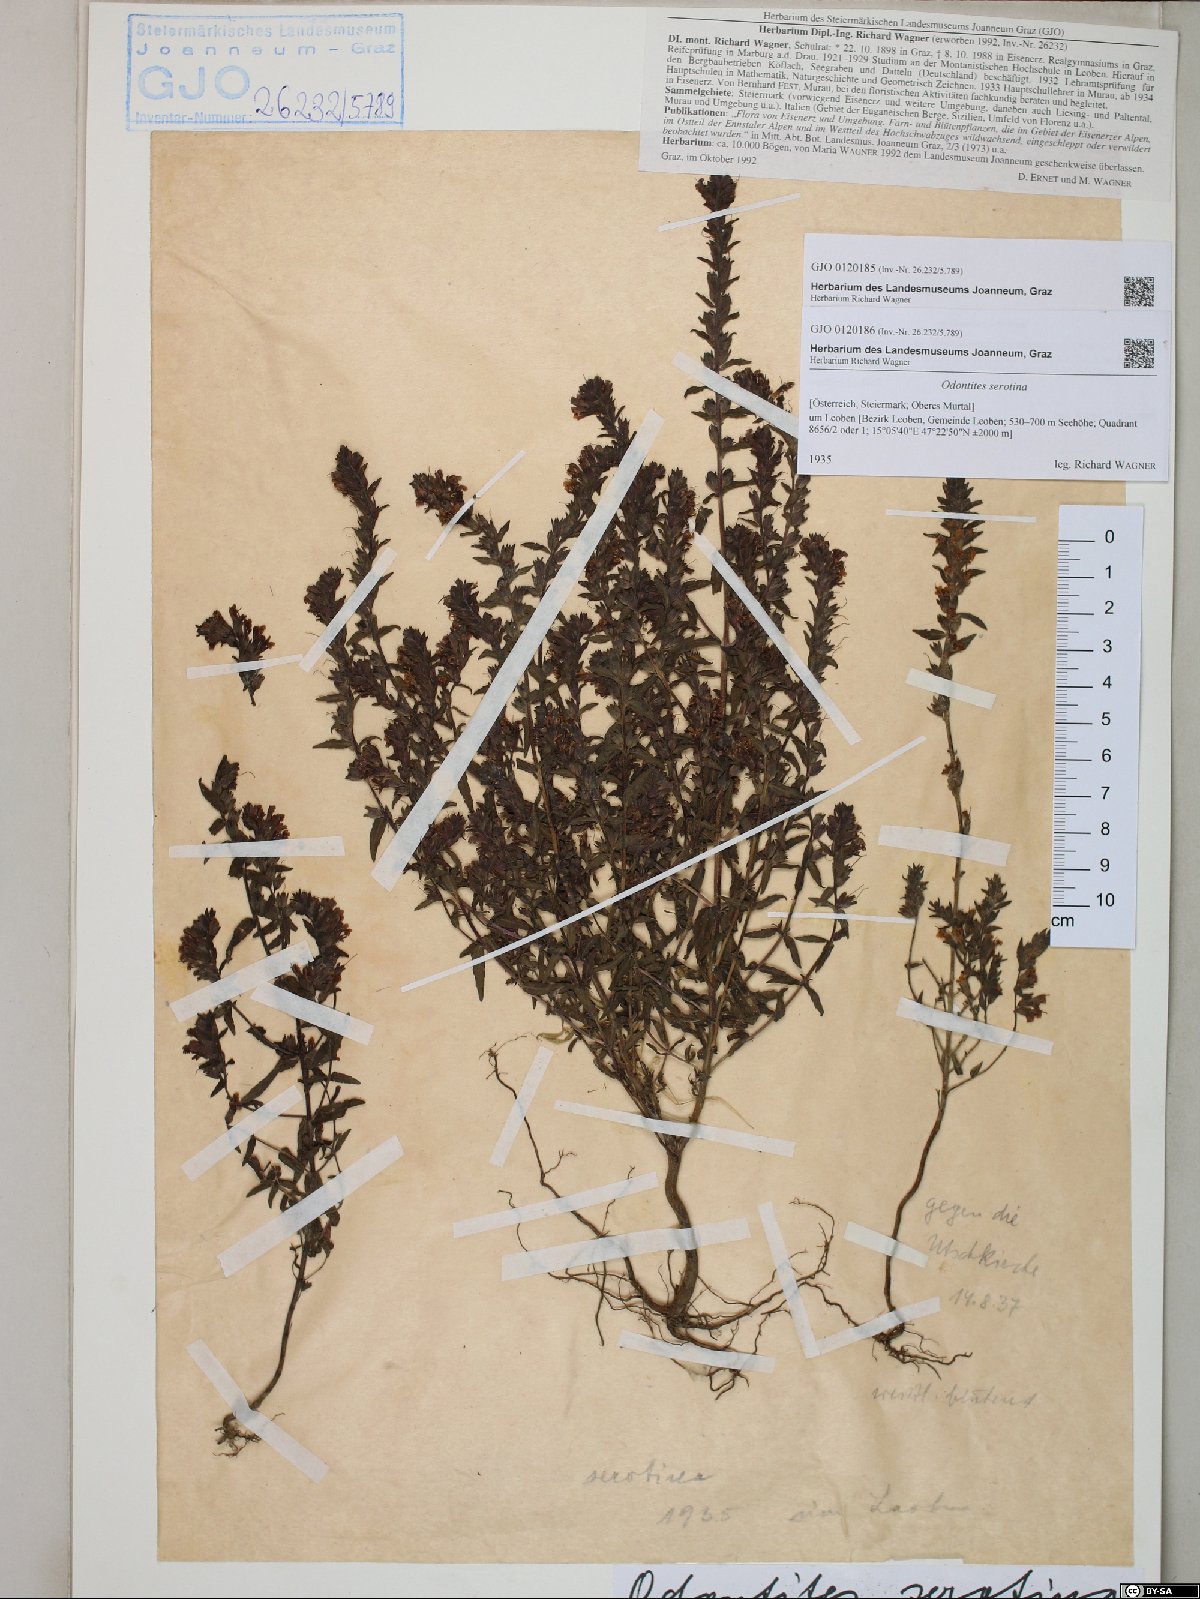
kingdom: Plantae
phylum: Tracheophyta
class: Magnoliopsida
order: Lamiales
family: Orobanchaceae
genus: Odontites
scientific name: Odontites vulgaris
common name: Broomrape
